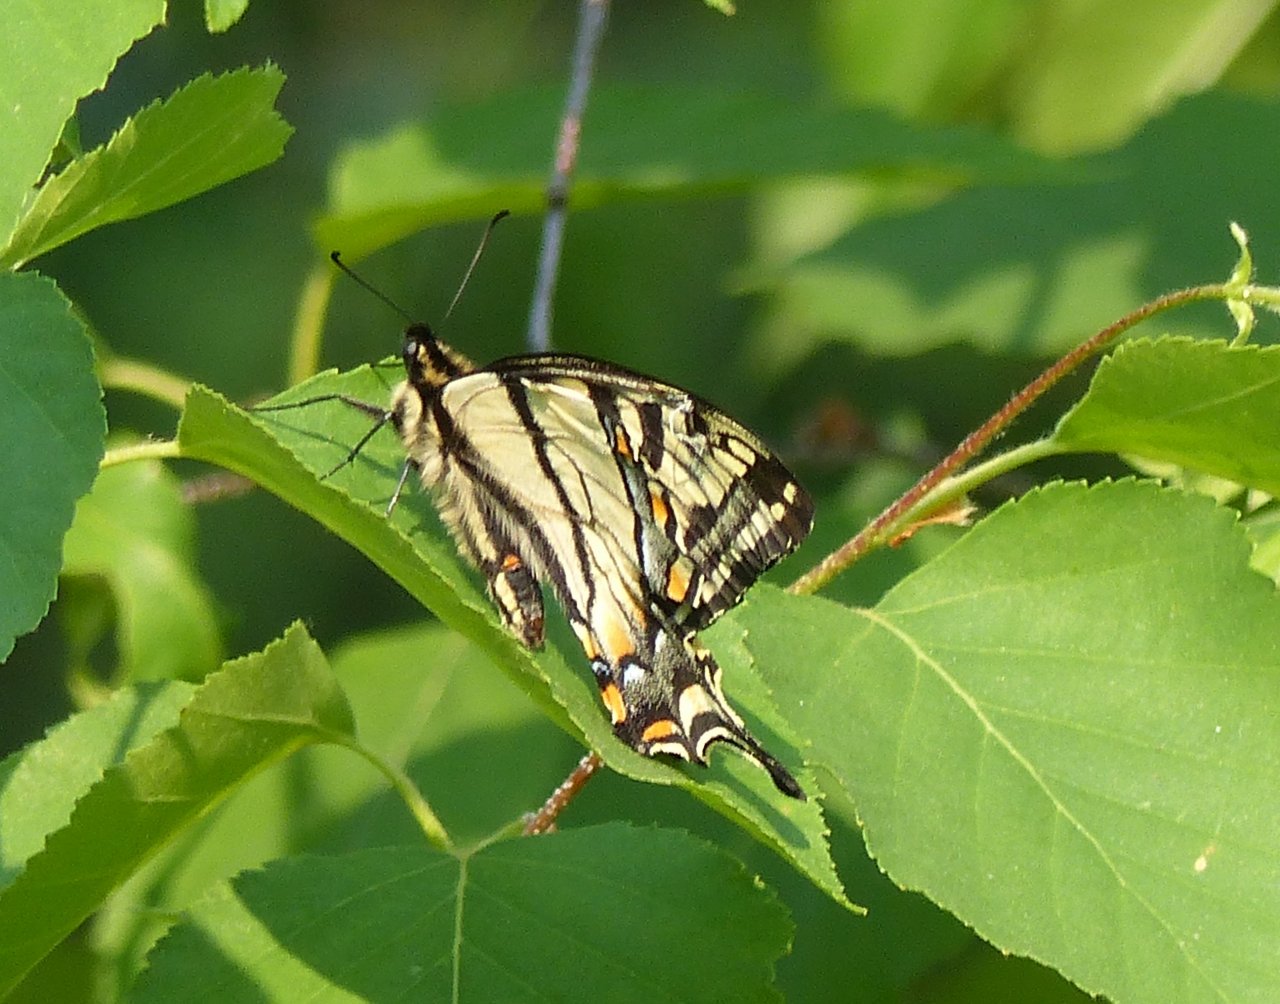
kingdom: Animalia
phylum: Arthropoda
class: Insecta
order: Lepidoptera
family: Papilionidae
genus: Pterourus
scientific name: Pterourus canadensis
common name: Canadian Tiger Swallowtail
